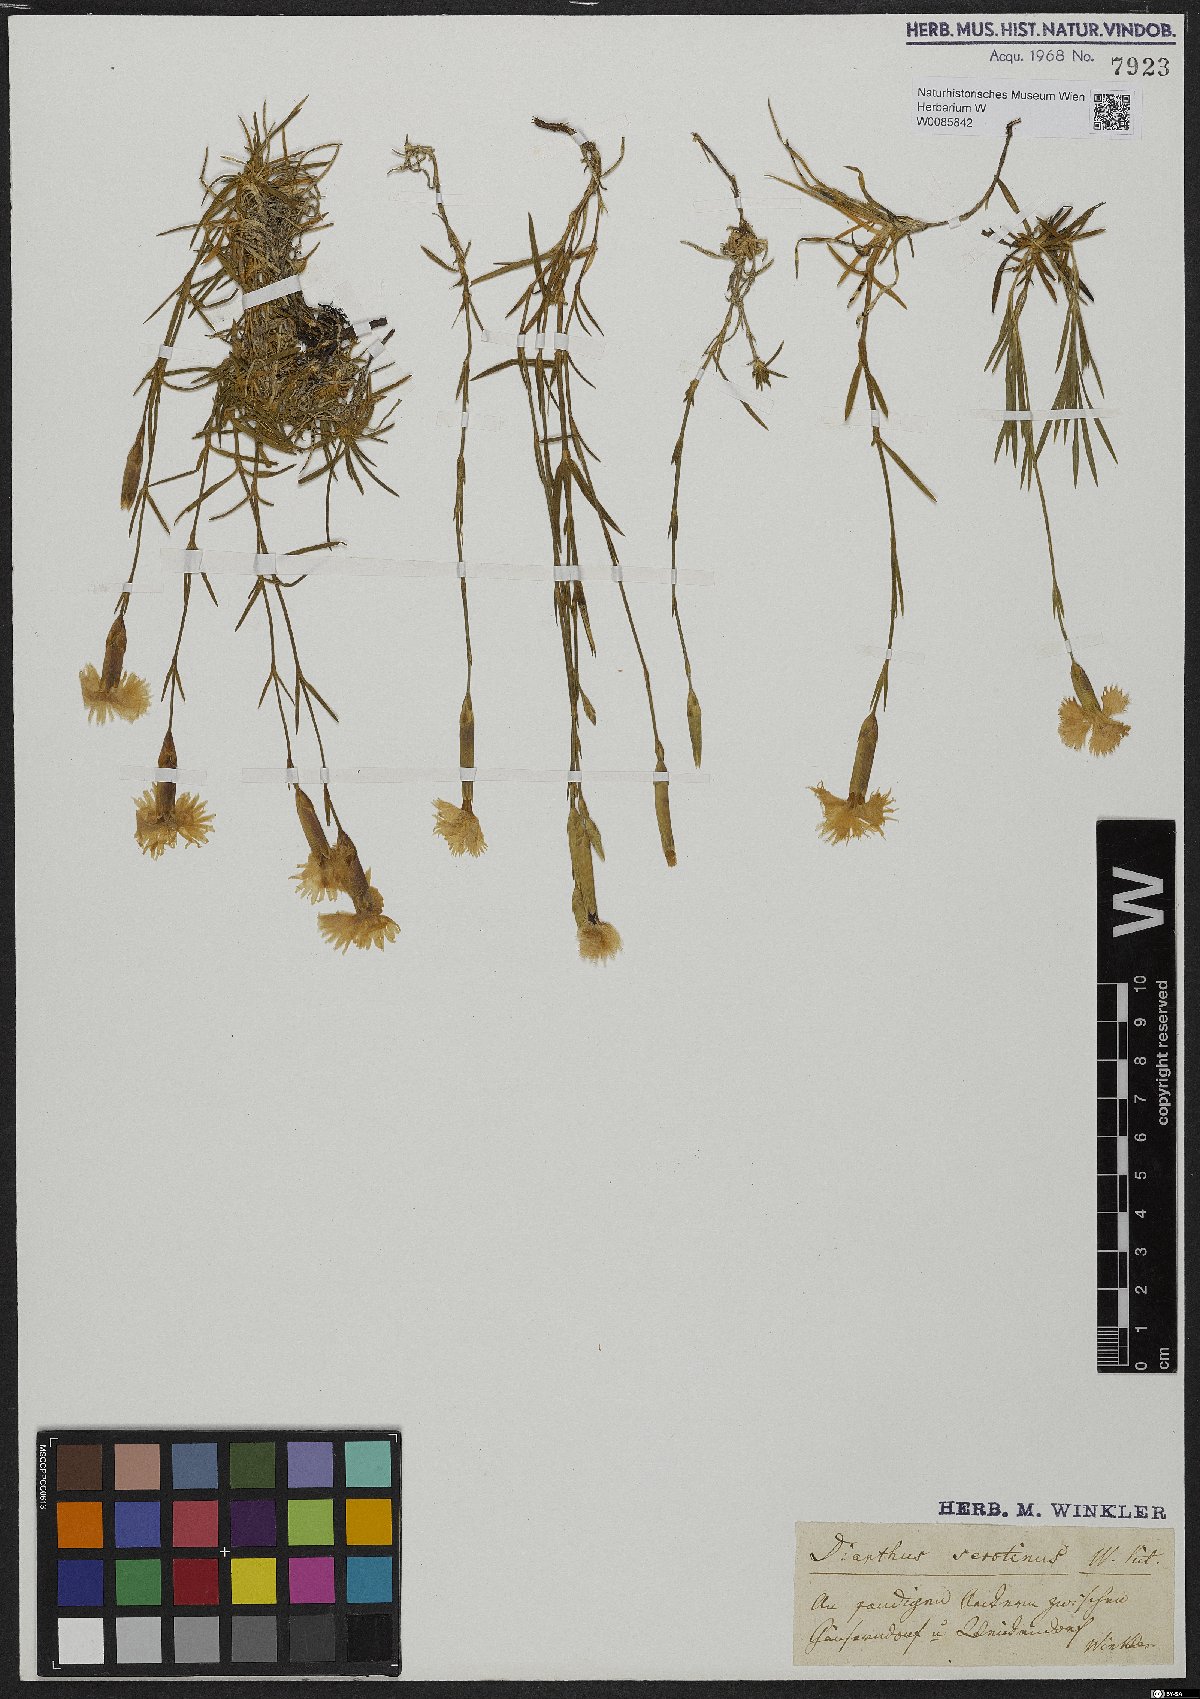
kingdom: Plantae
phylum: Tracheophyta
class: Magnoliopsida
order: Caryophyllales
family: Caryophyllaceae
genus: Dianthus
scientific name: Dianthus serotinus
